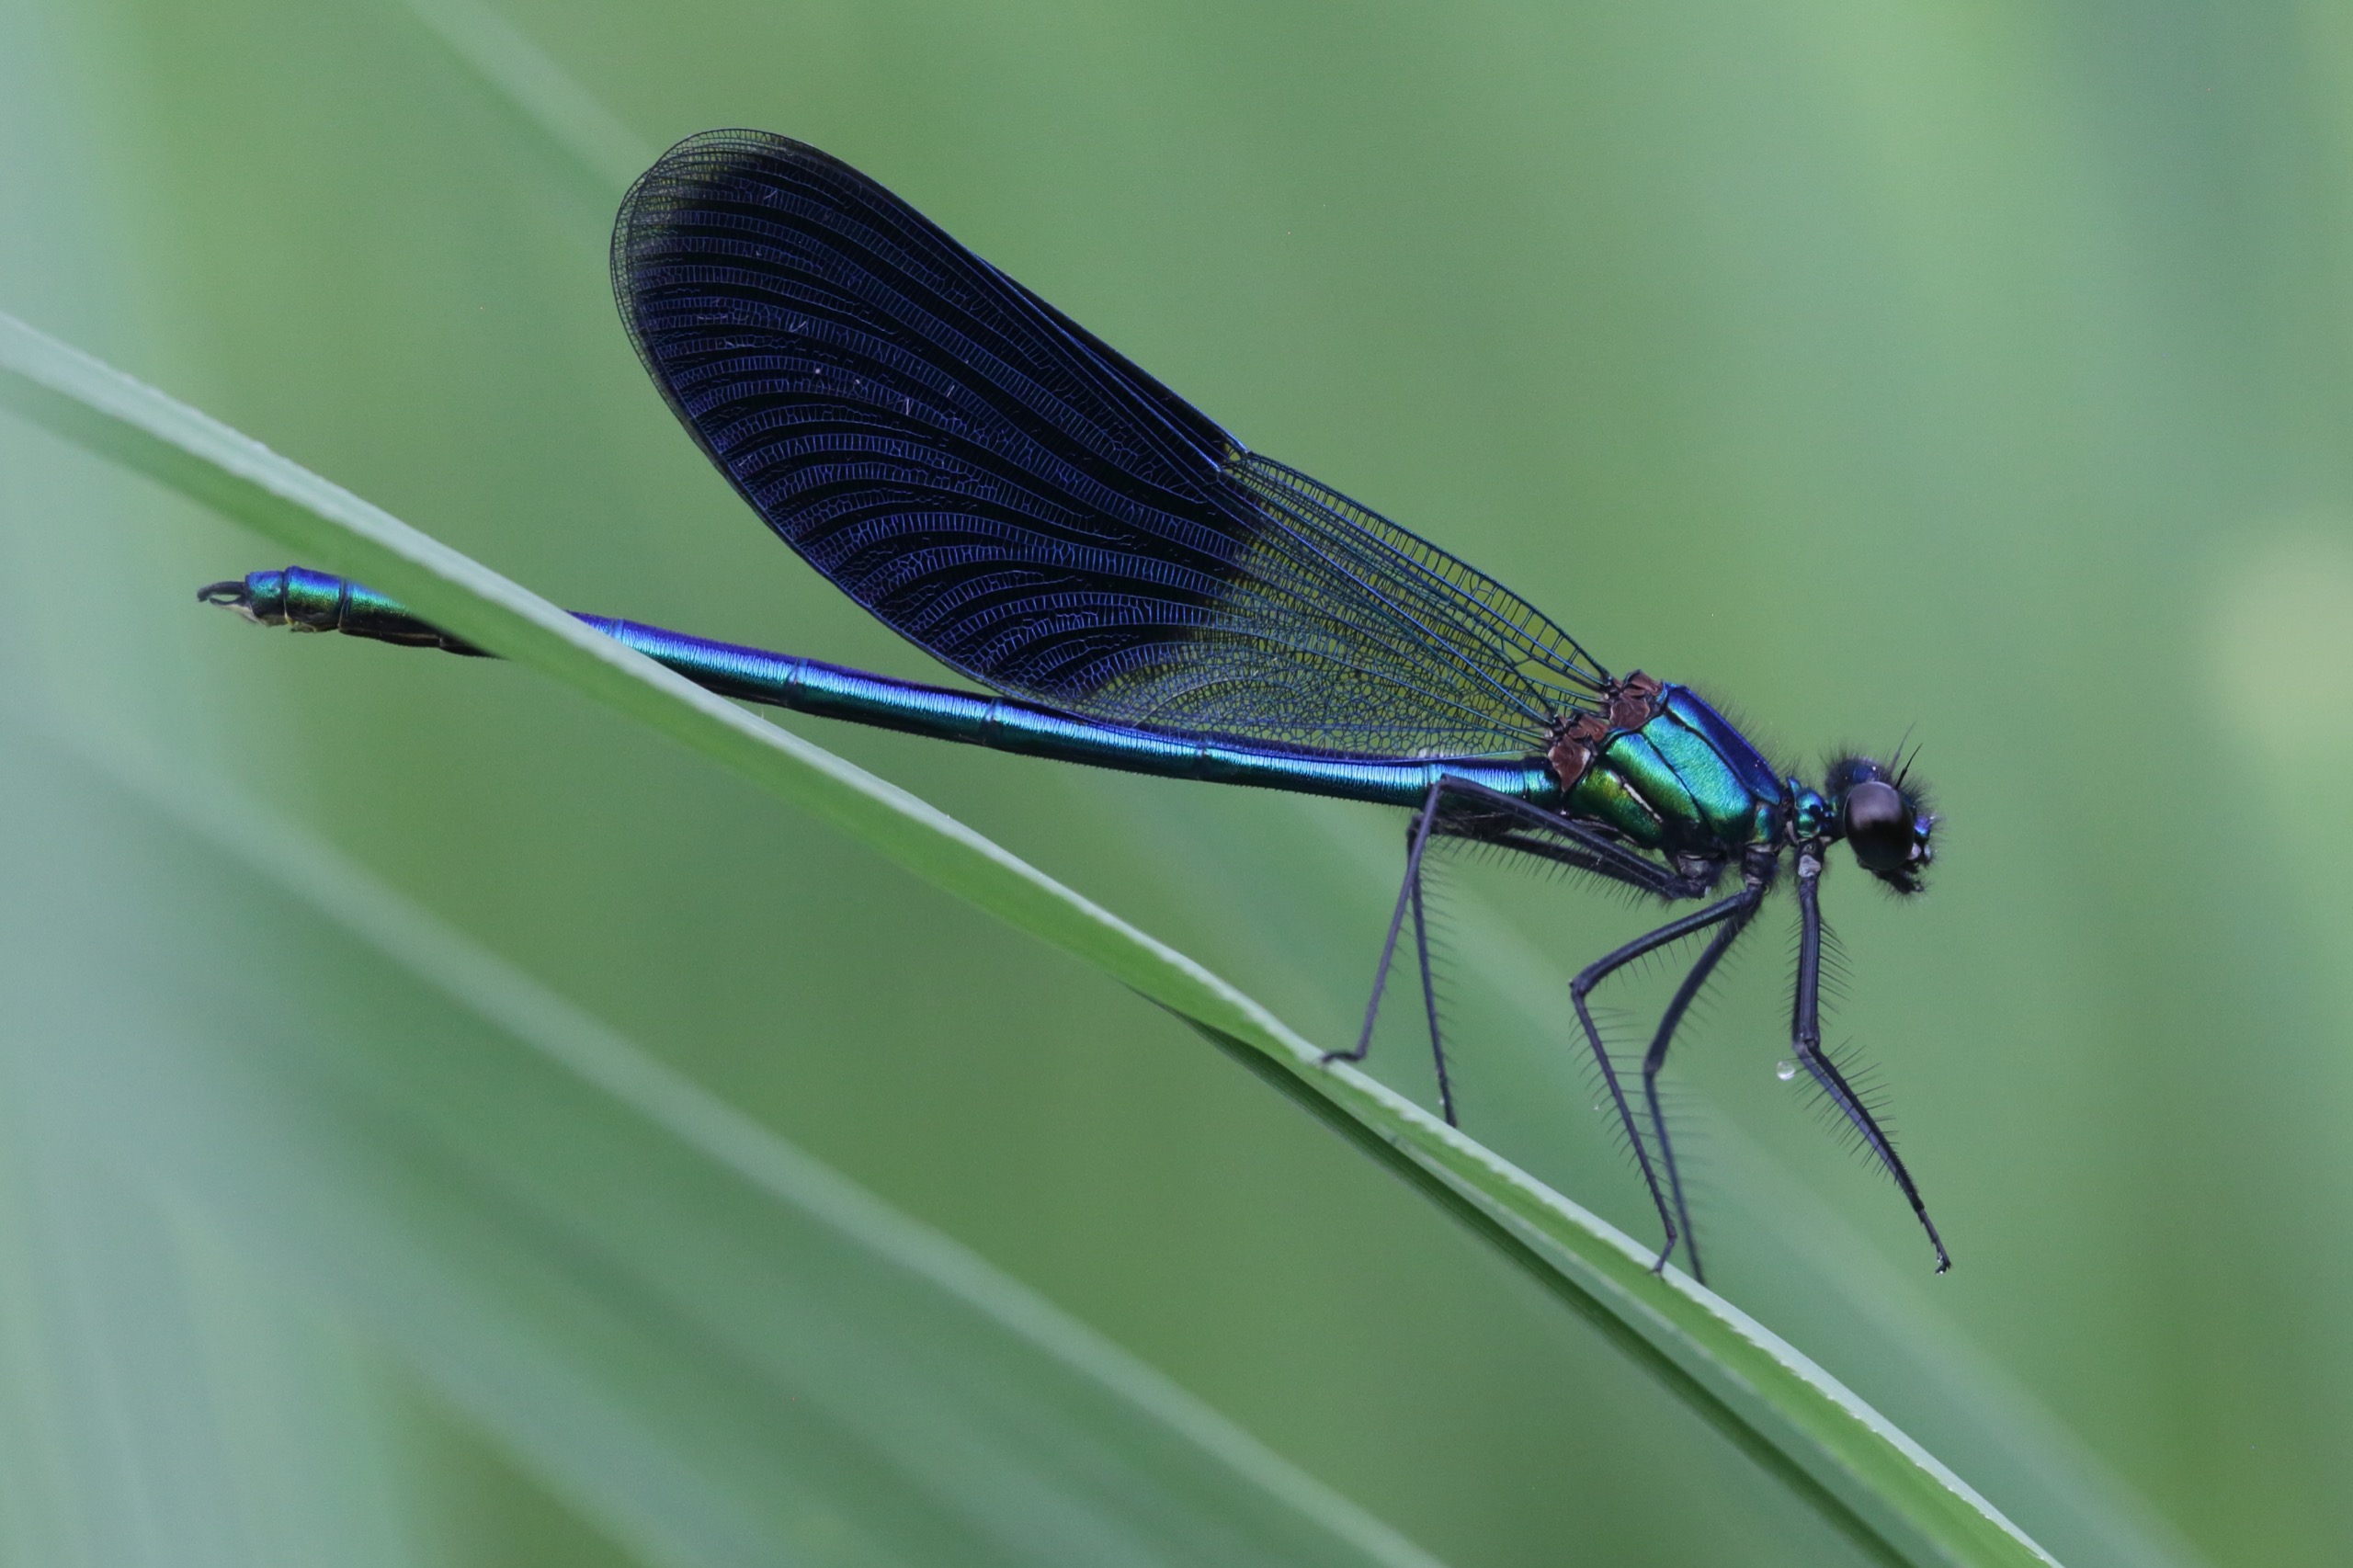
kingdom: Animalia
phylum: Arthropoda
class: Insecta
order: Odonata
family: Calopterygidae
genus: Calopteryx
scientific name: Calopteryx splendens
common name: Blåbåndet pragtvandnymfe
